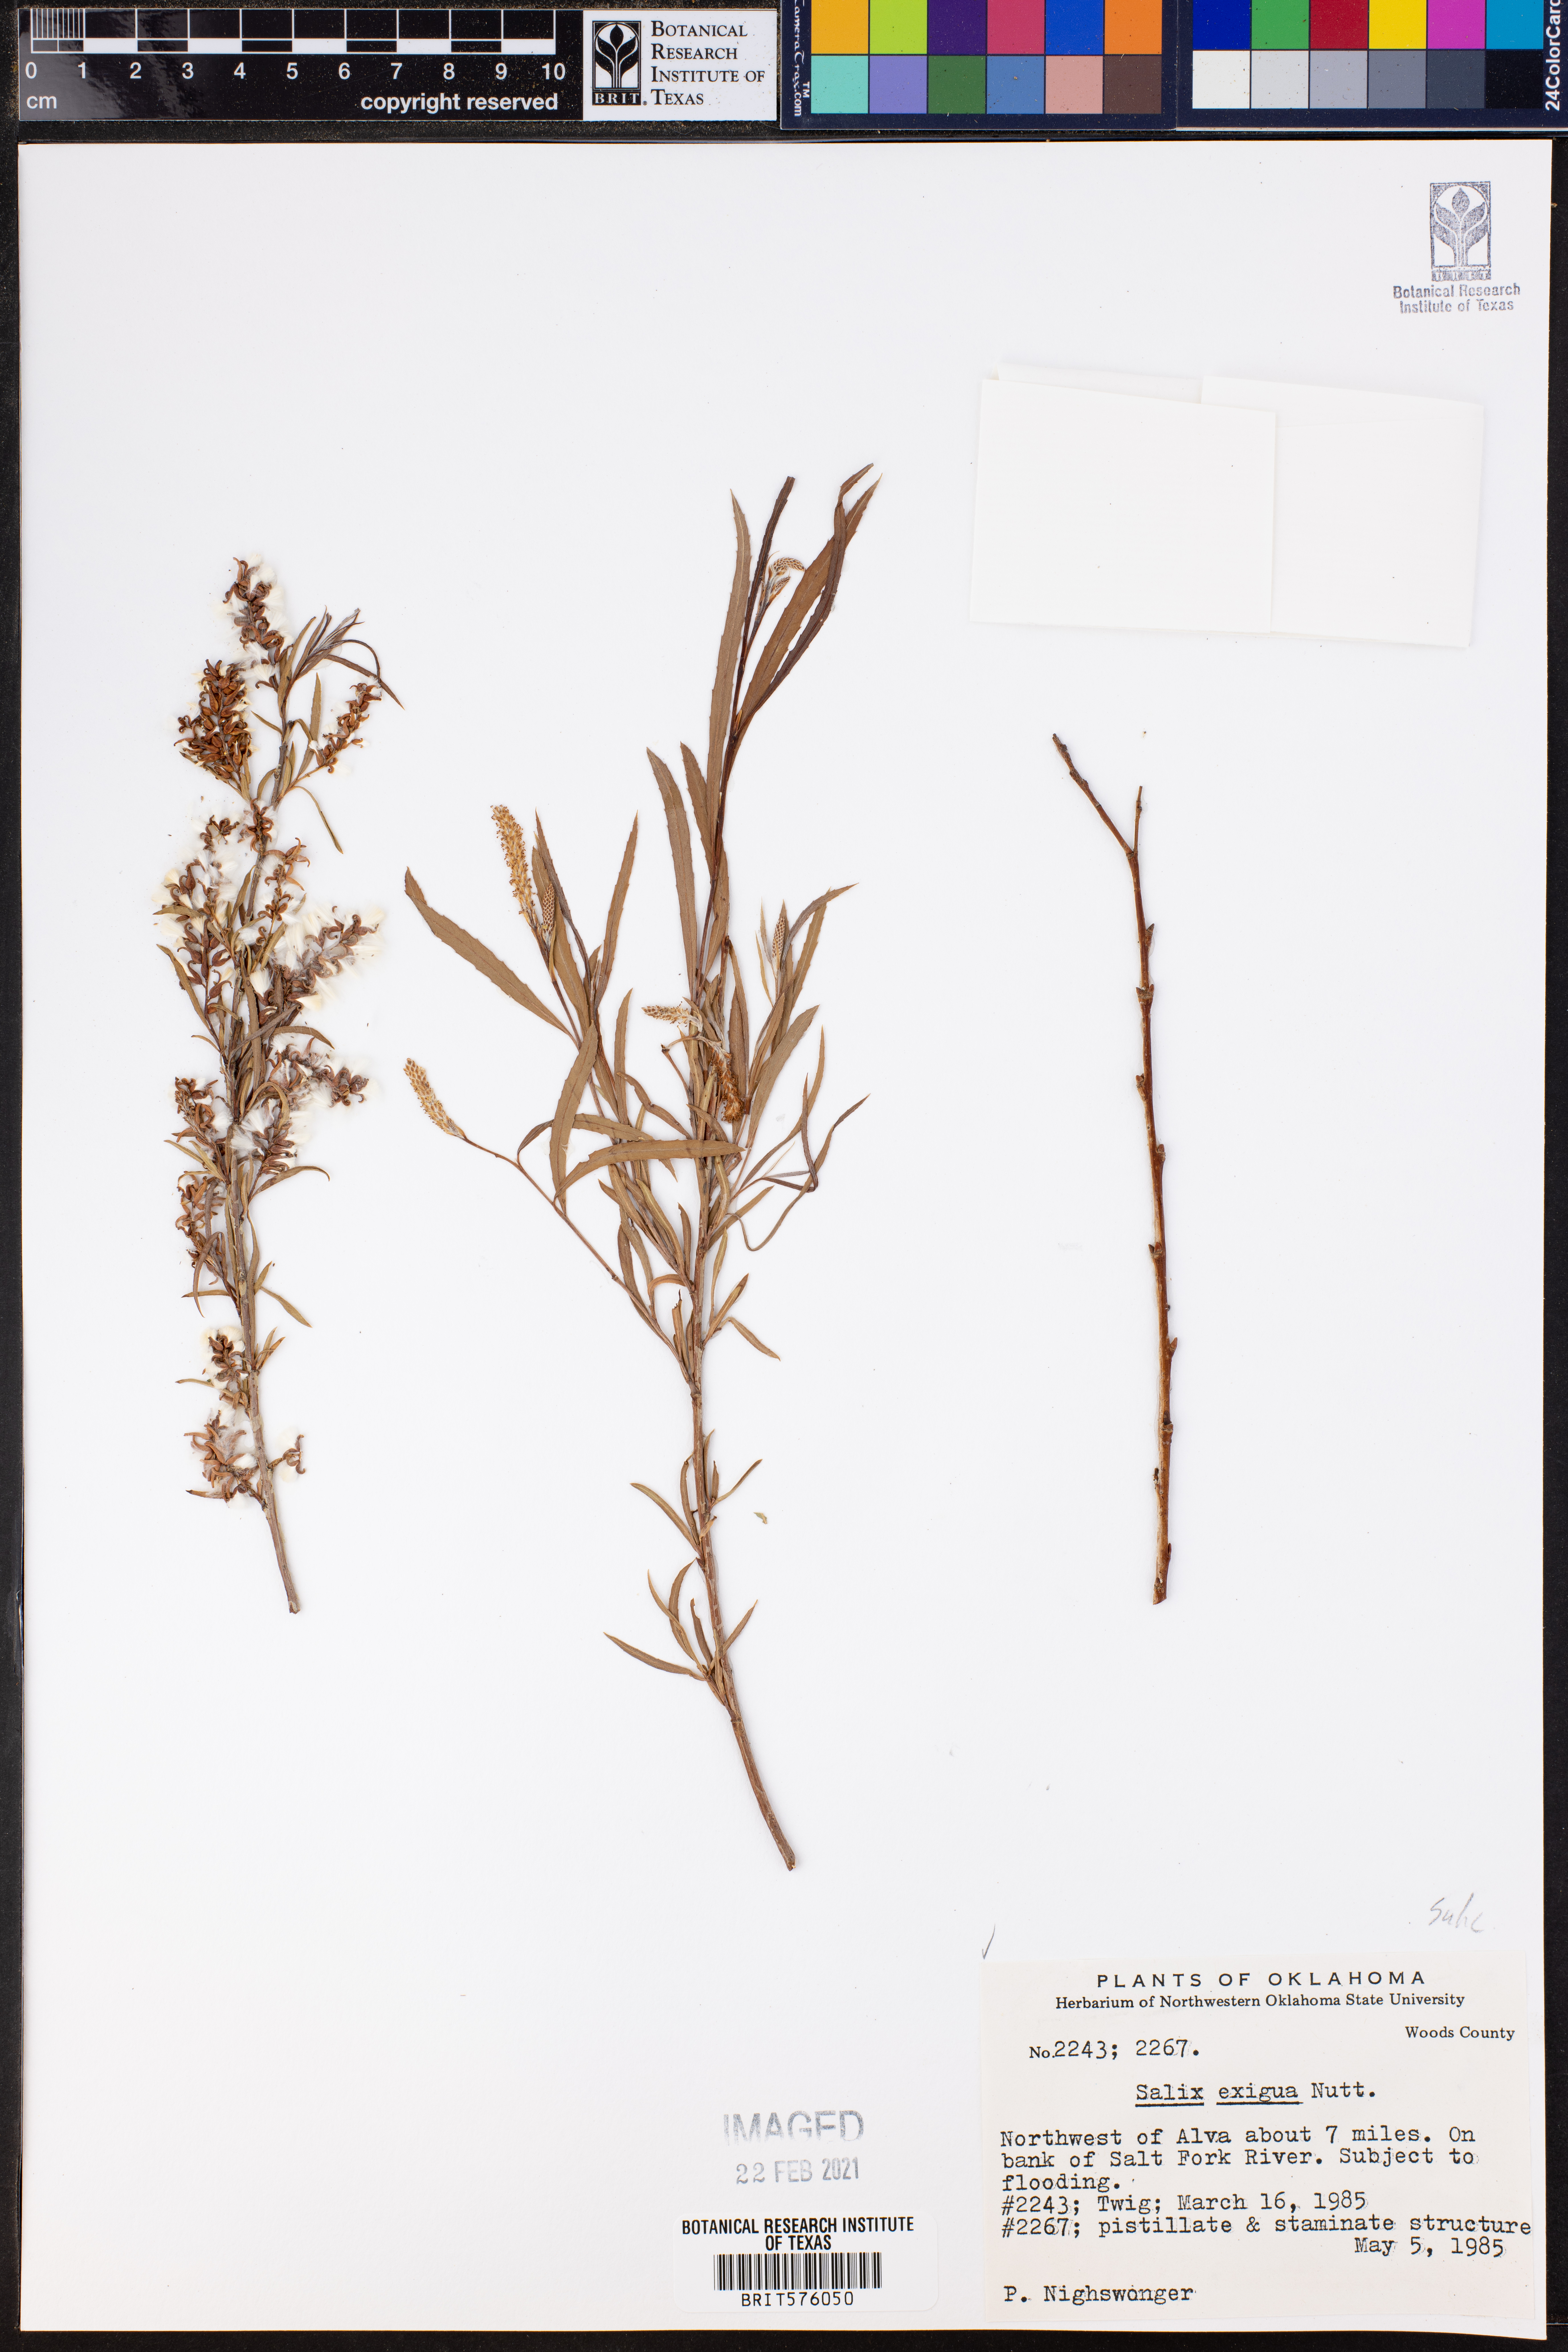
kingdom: Plantae
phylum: Tracheophyta
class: Magnoliopsida
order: Malpighiales
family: Salicaceae
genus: Salix
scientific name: Salix exigua
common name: Coyote willow
